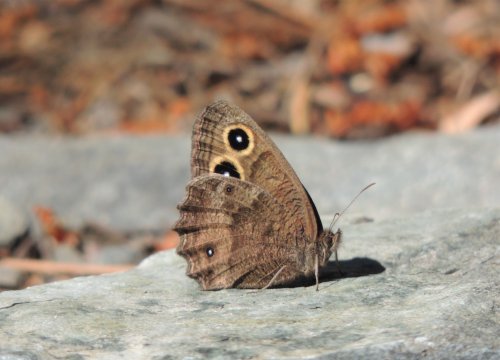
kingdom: Animalia
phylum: Arthropoda
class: Insecta
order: Lepidoptera
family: Nymphalidae
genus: Cercyonis
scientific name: Cercyonis pegala
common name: Common Wood-Nymph
